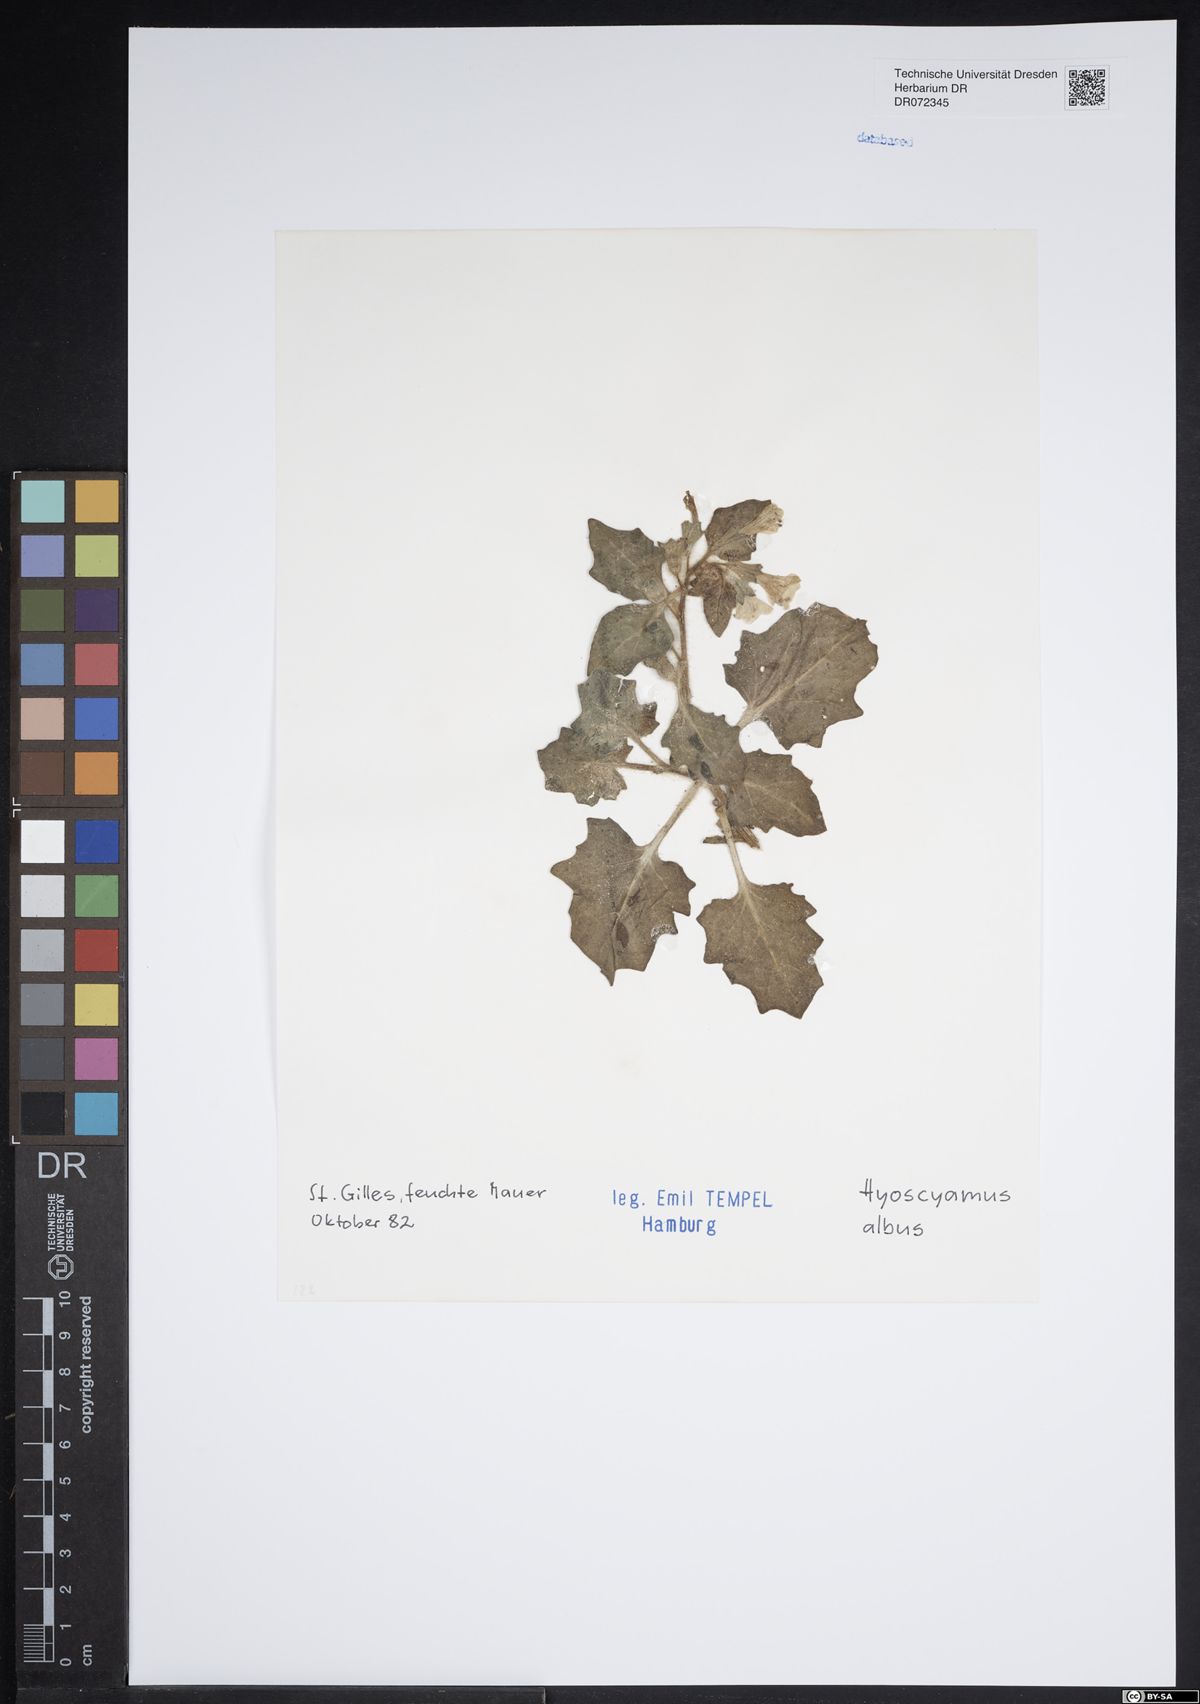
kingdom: Plantae
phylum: Tracheophyta
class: Magnoliopsida
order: Solanales
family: Solanaceae
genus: Hyoscyamus
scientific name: Hyoscyamus albus
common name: White henbane
